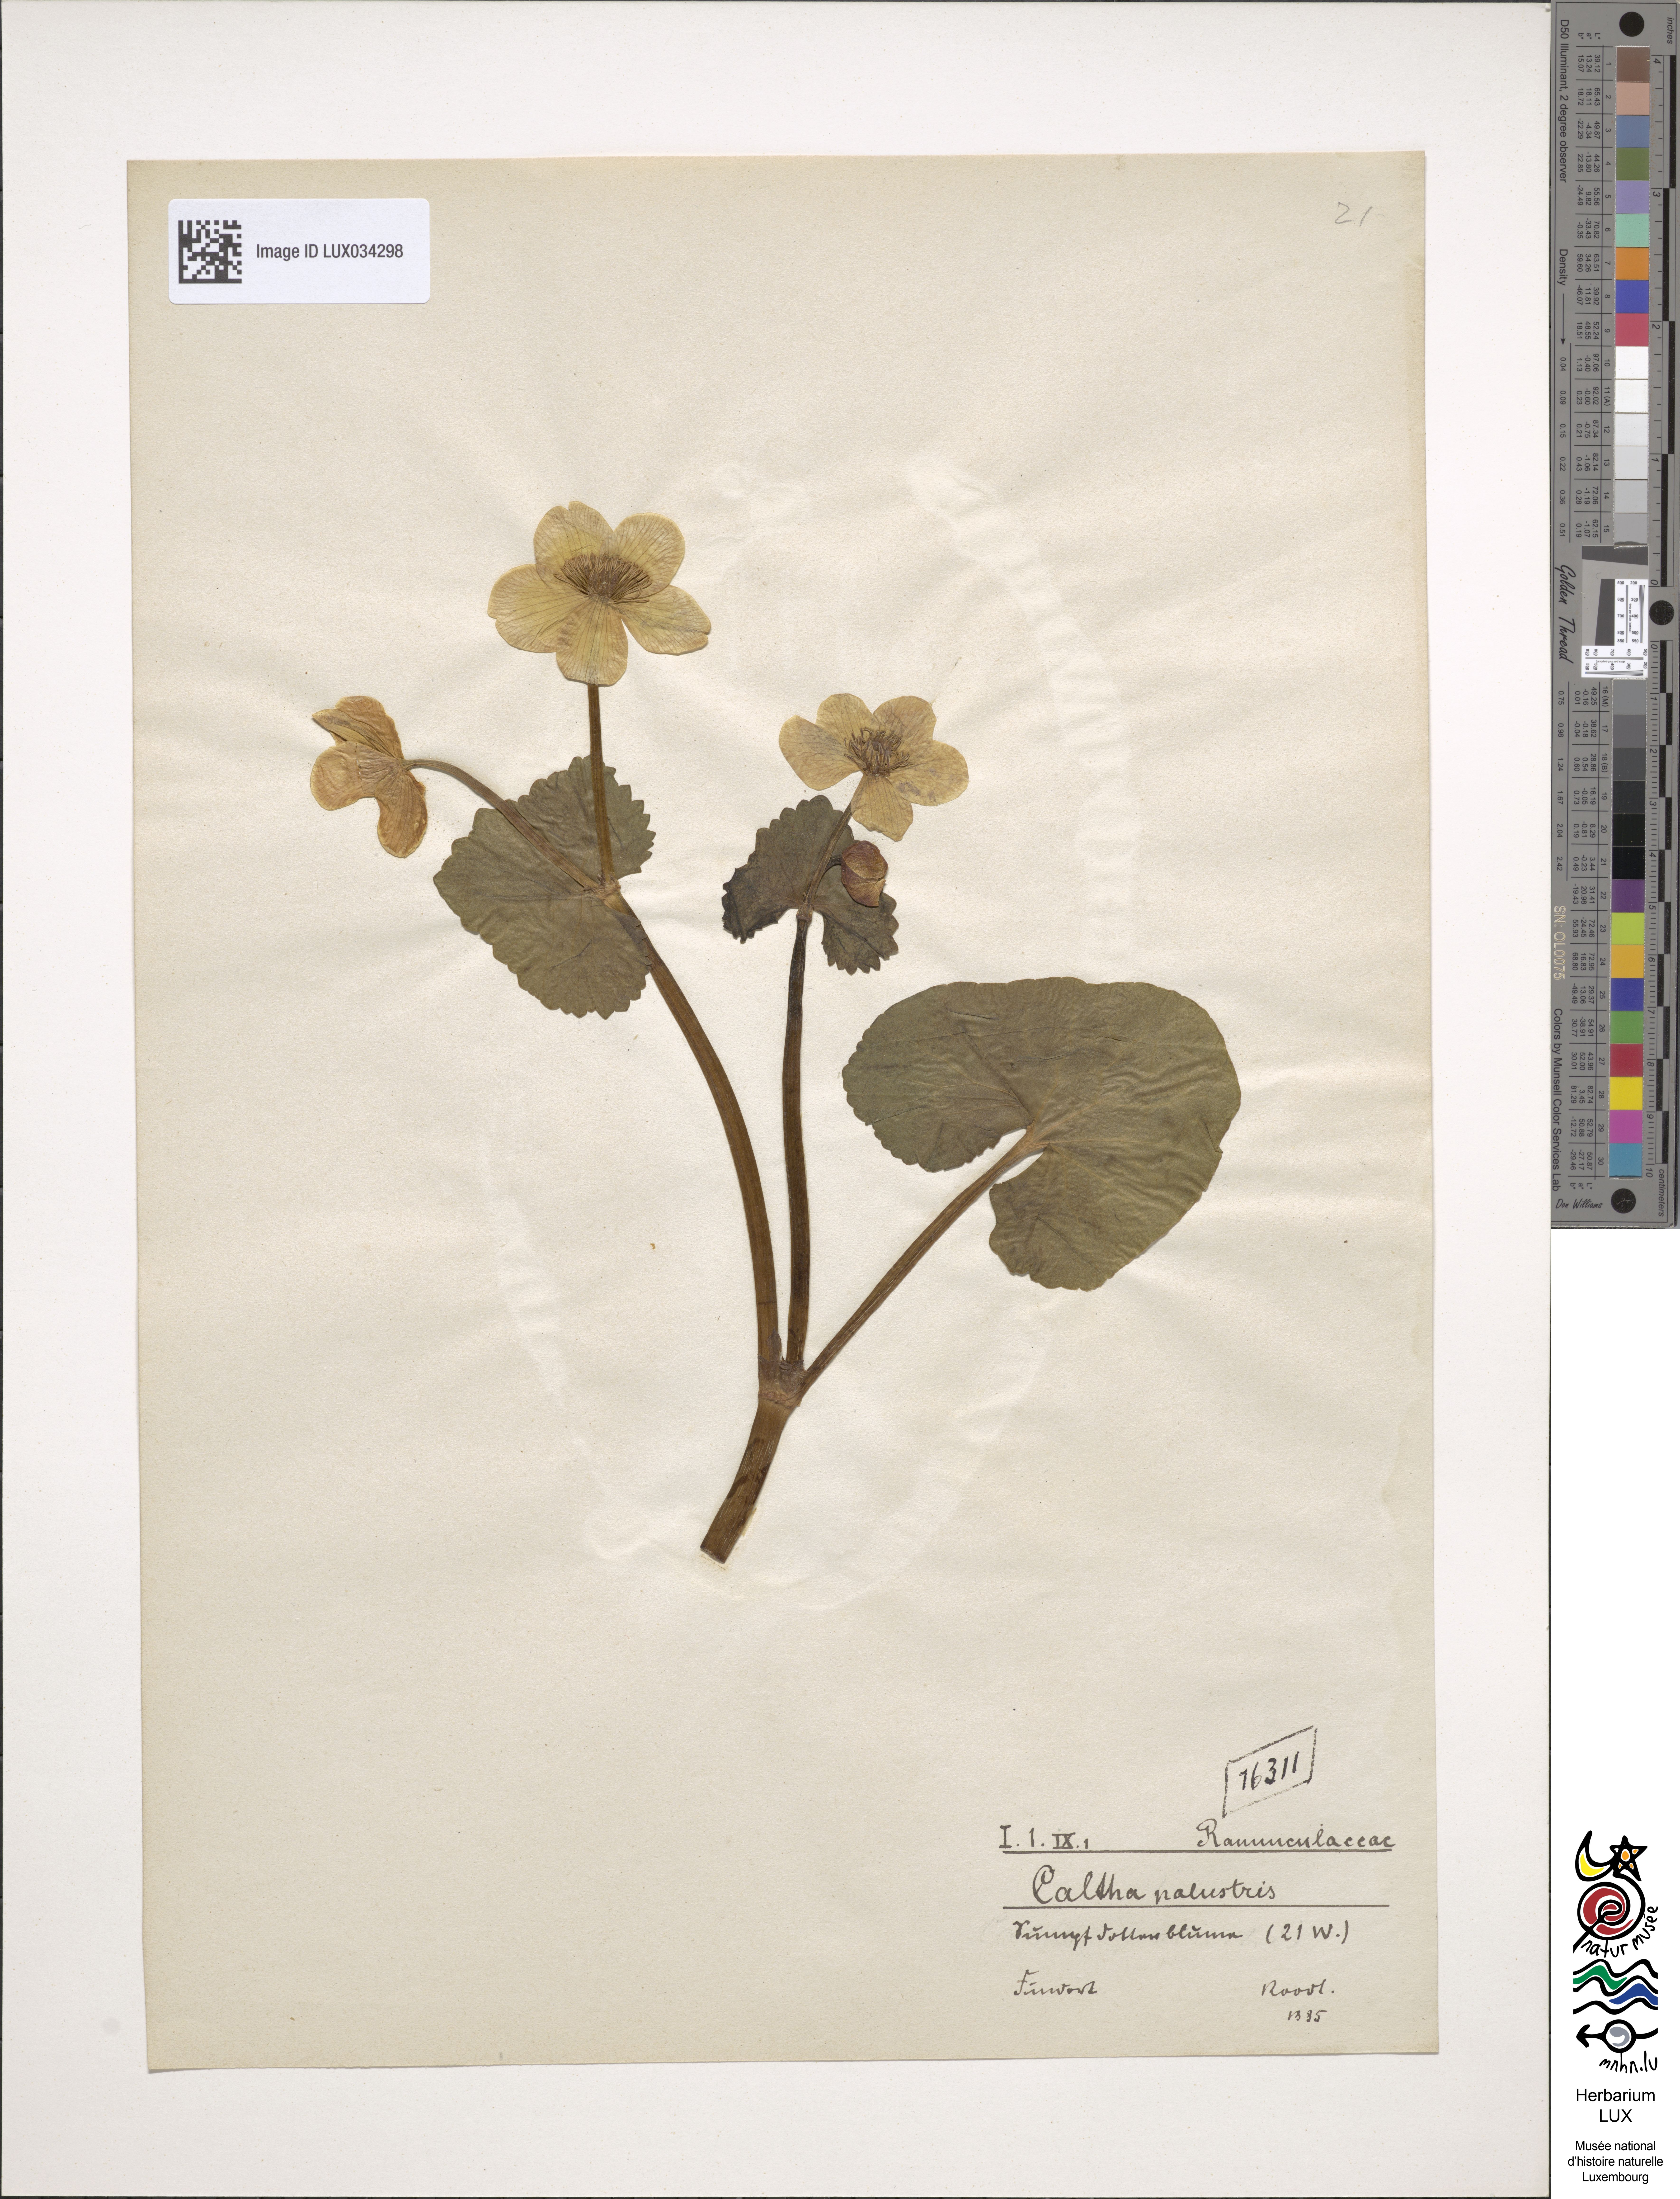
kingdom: Plantae
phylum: Tracheophyta
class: Magnoliopsida
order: Ranunculales
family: Ranunculaceae
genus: Caltha
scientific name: Caltha palustris
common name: Marsh marigold
